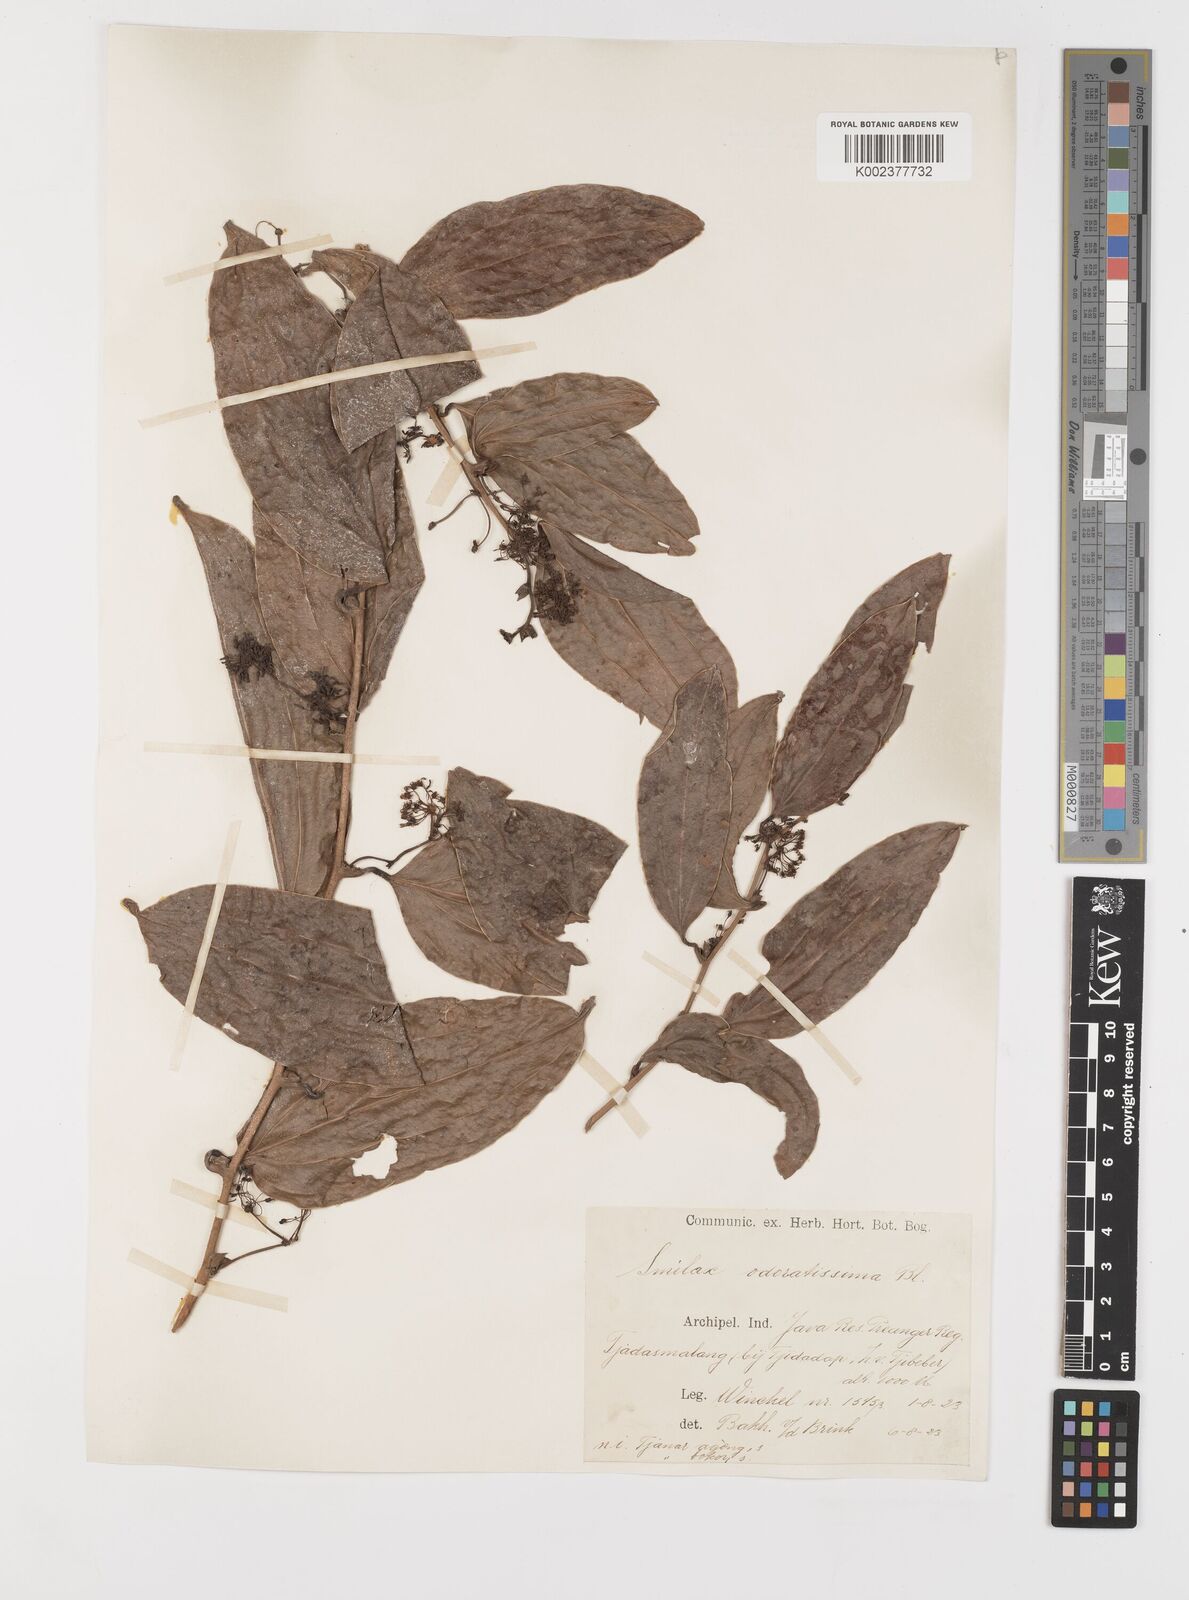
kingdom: Plantae
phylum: Tracheophyta
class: Liliopsida
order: Liliales
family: Smilacaceae
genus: Smilax
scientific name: Smilax odoratissima
